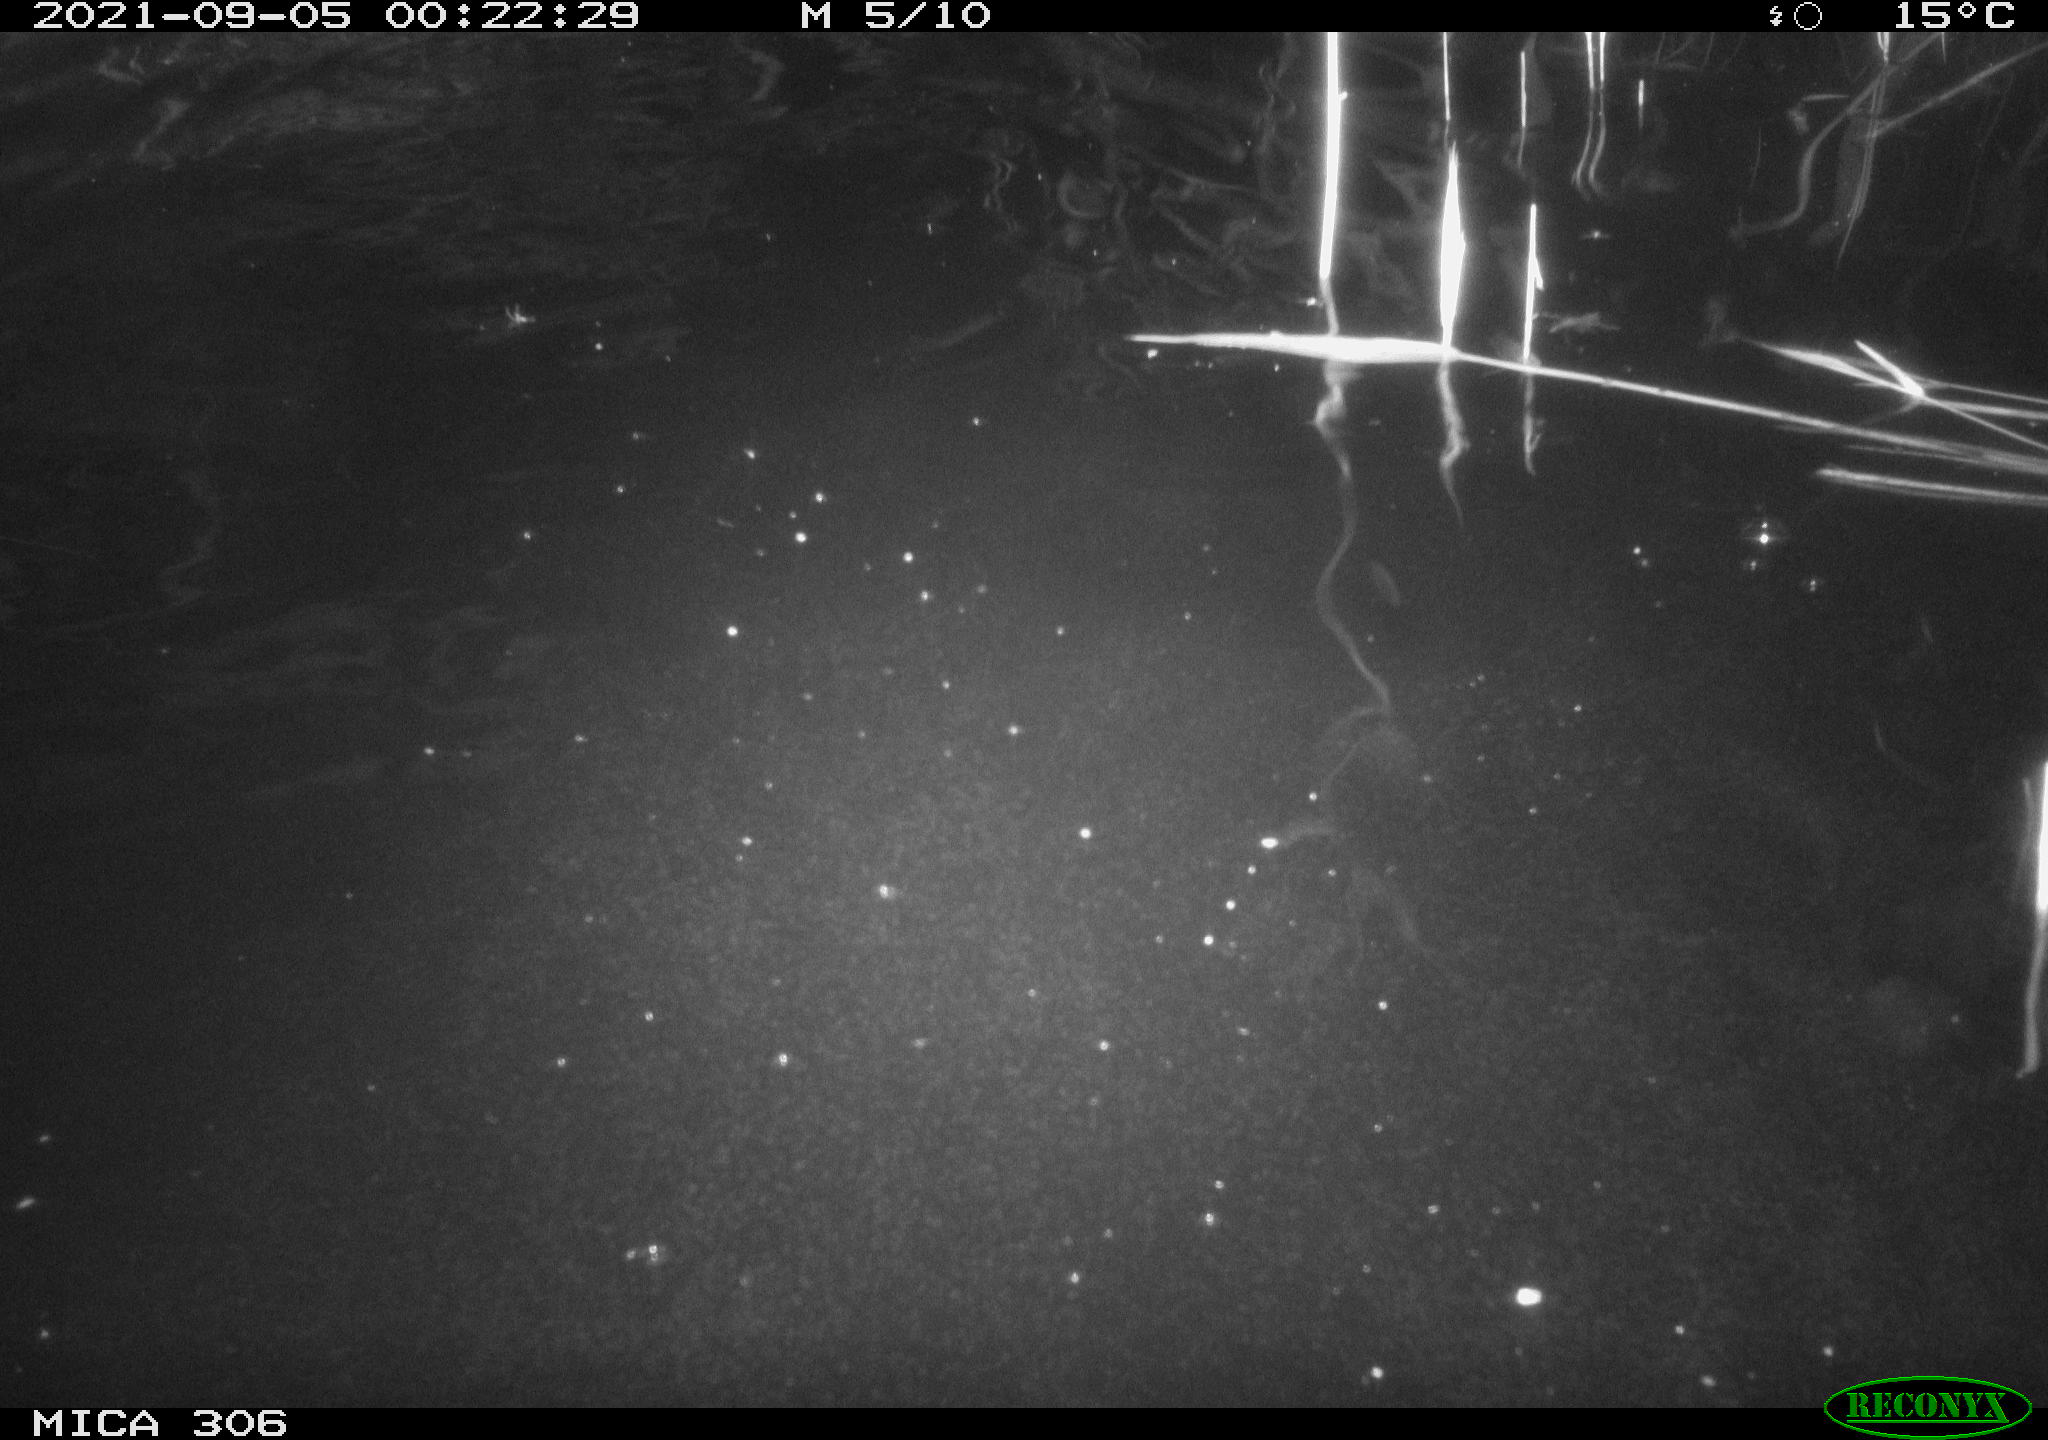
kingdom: Animalia
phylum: Chordata
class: Mammalia
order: Rodentia
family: Muridae
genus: Rattus
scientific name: Rattus norvegicus
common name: Brown rat
